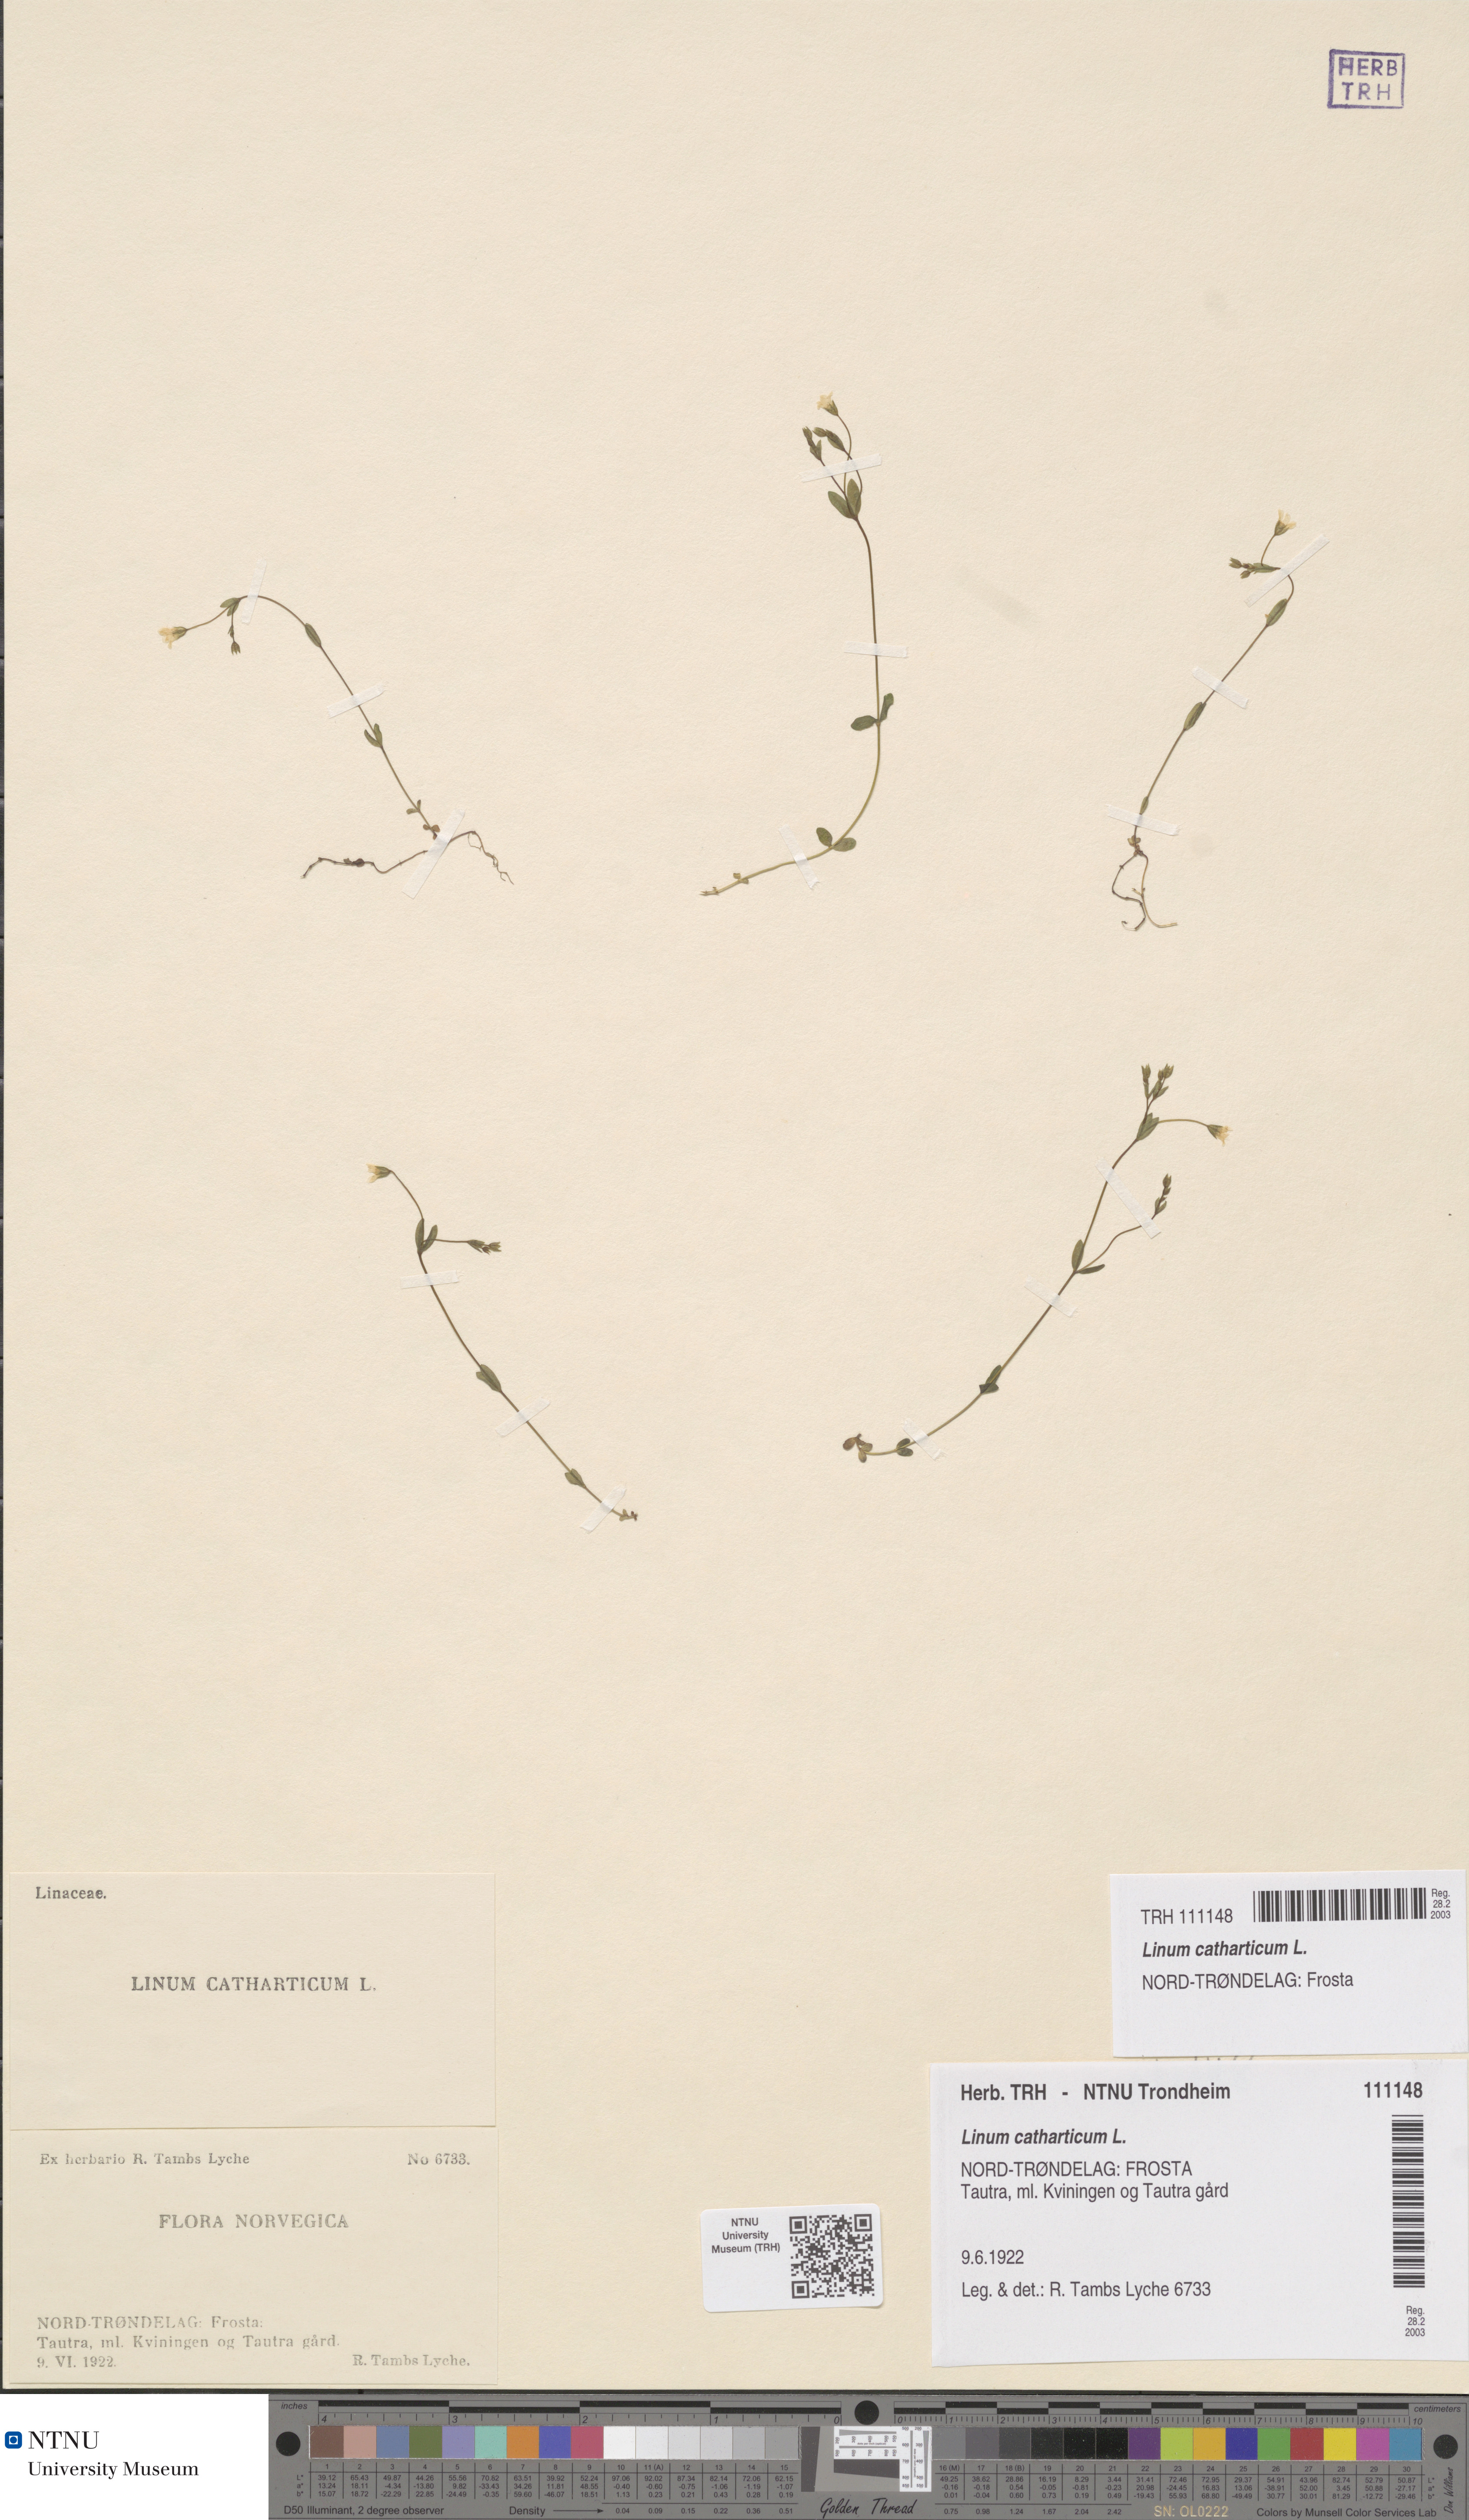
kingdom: Plantae
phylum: Tracheophyta
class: Magnoliopsida
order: Malpighiales
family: Linaceae
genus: Linum
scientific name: Linum catharticum
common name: Fairy flax
